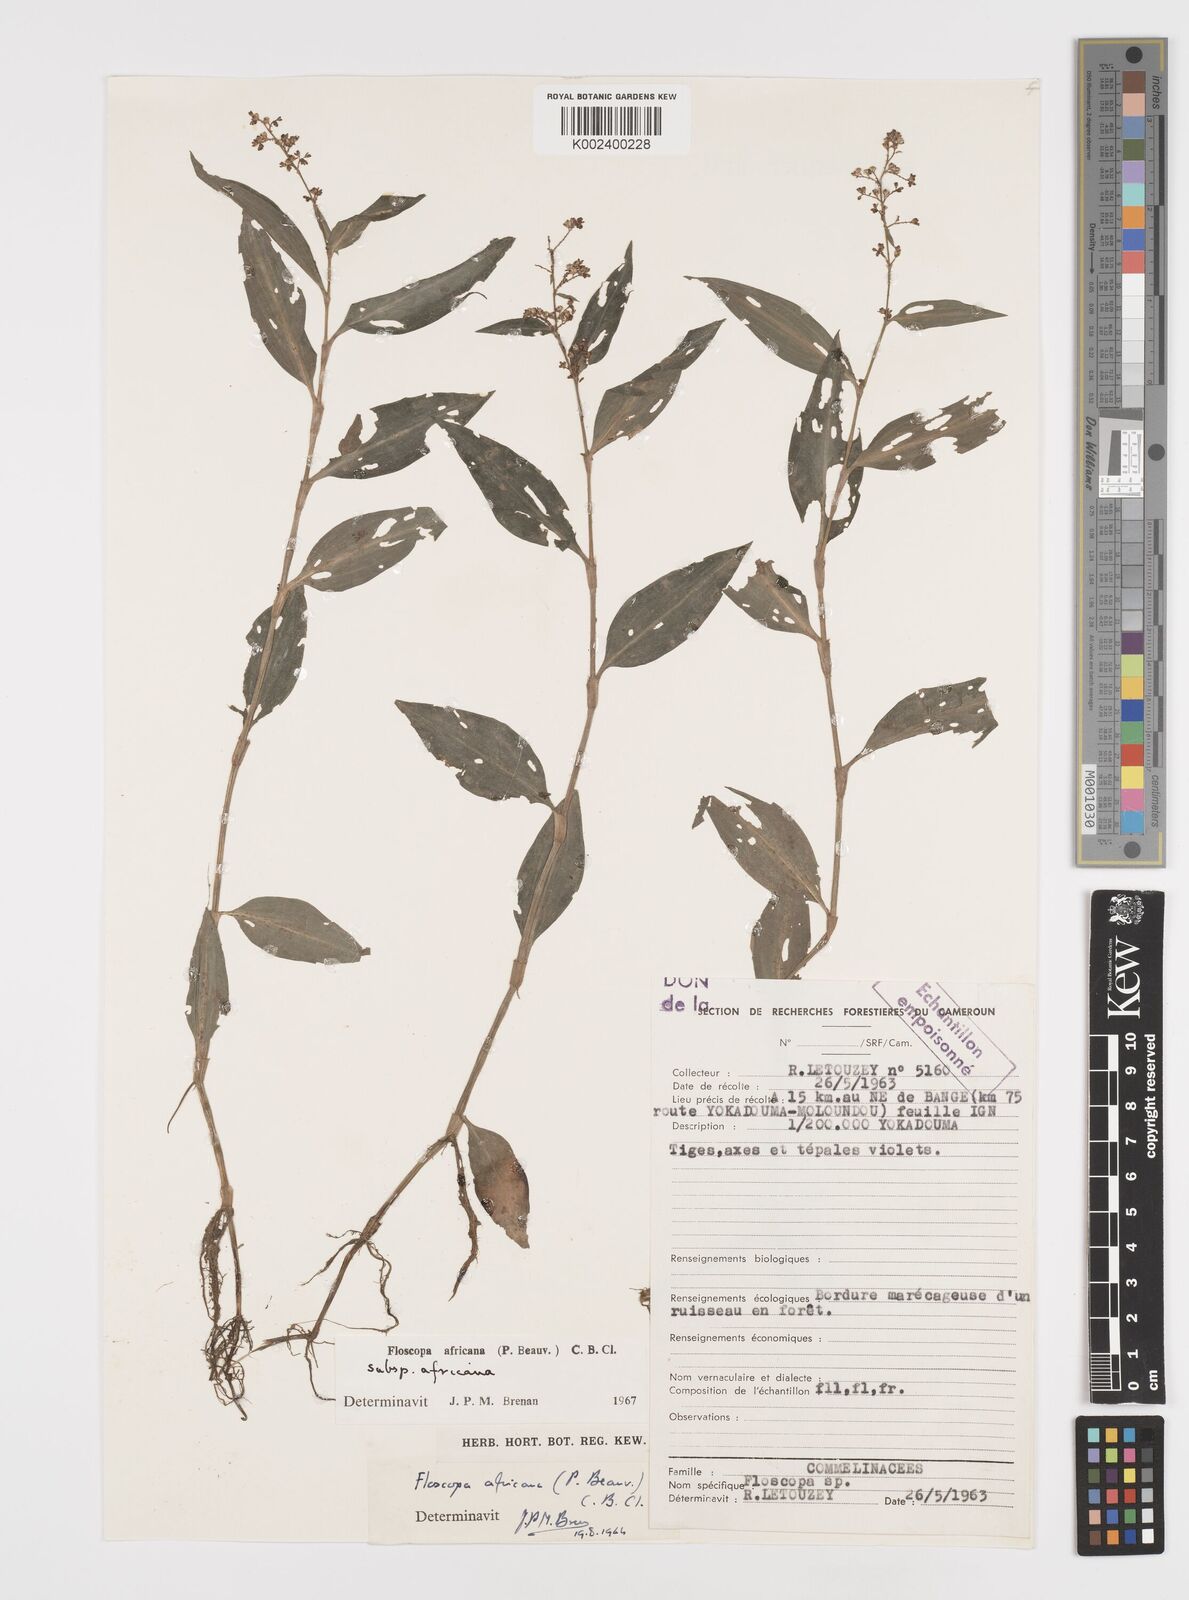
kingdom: Plantae
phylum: Tracheophyta
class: Liliopsida
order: Commelinales
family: Commelinaceae
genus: Floscopa
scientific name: Floscopa africana
